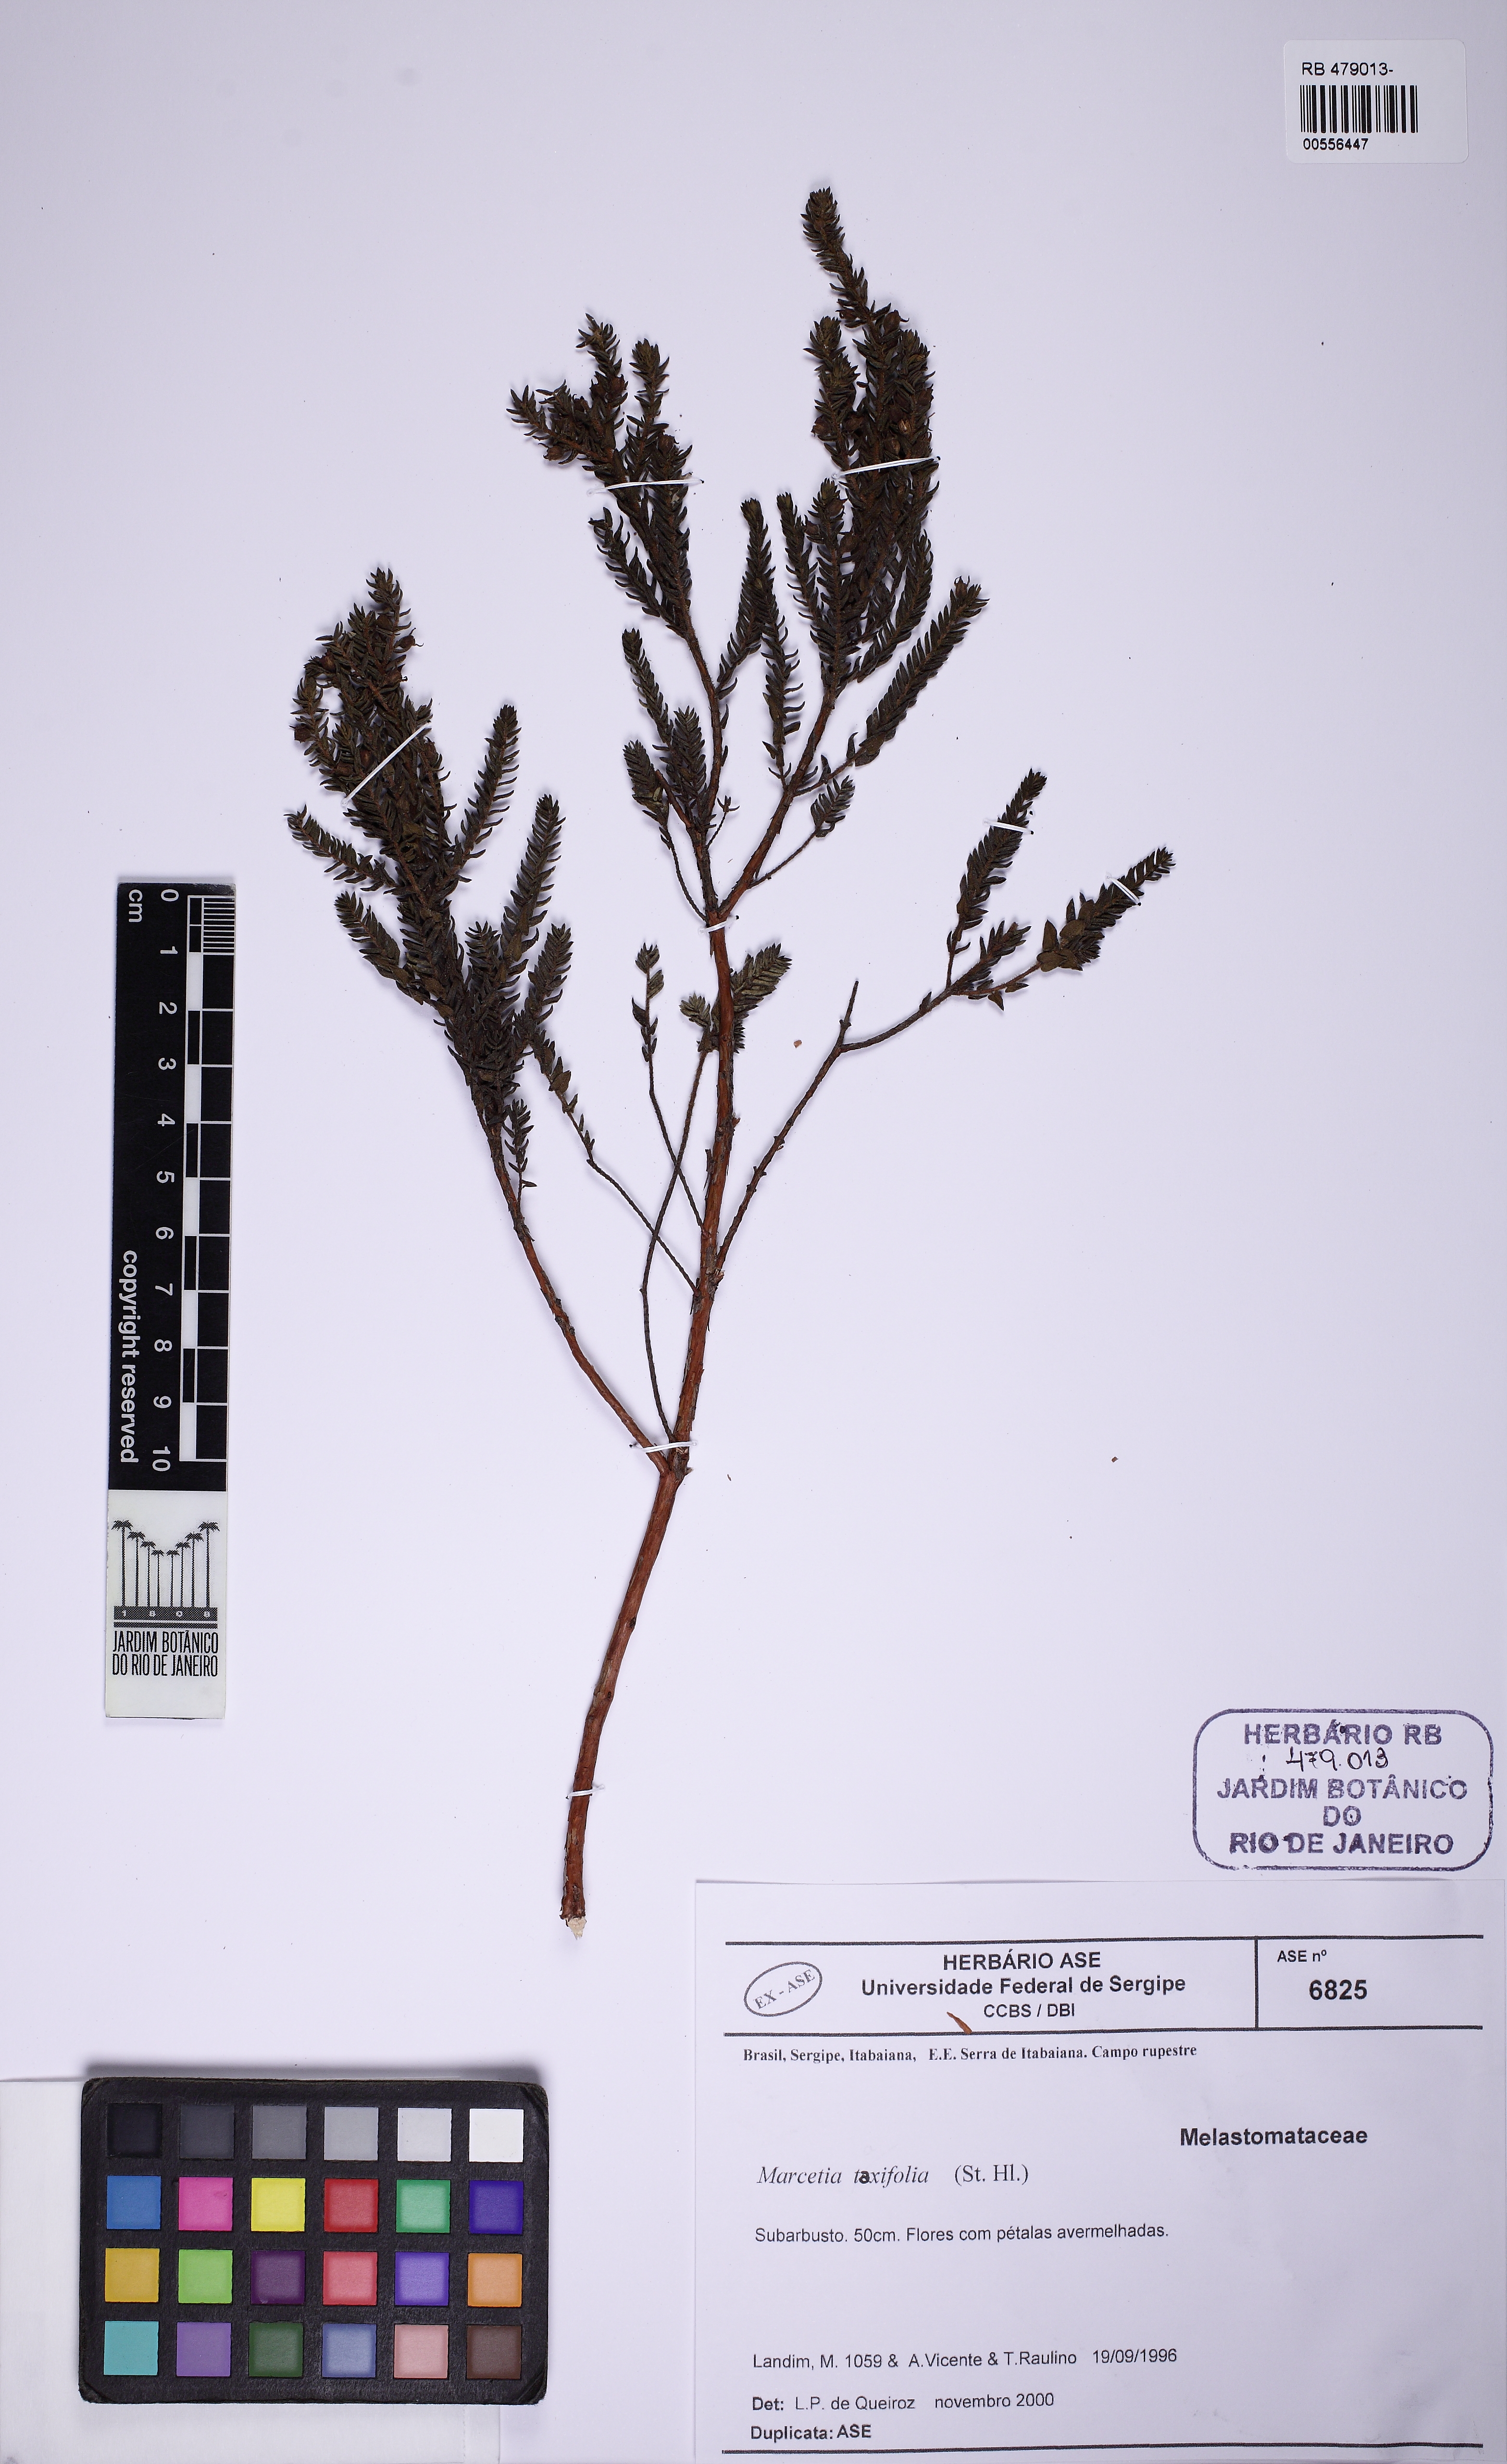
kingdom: Plantae
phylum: Tracheophyta
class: Magnoliopsida
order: Myrtales
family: Melastomataceae
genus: Marcetia
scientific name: Marcetia taxifolia
